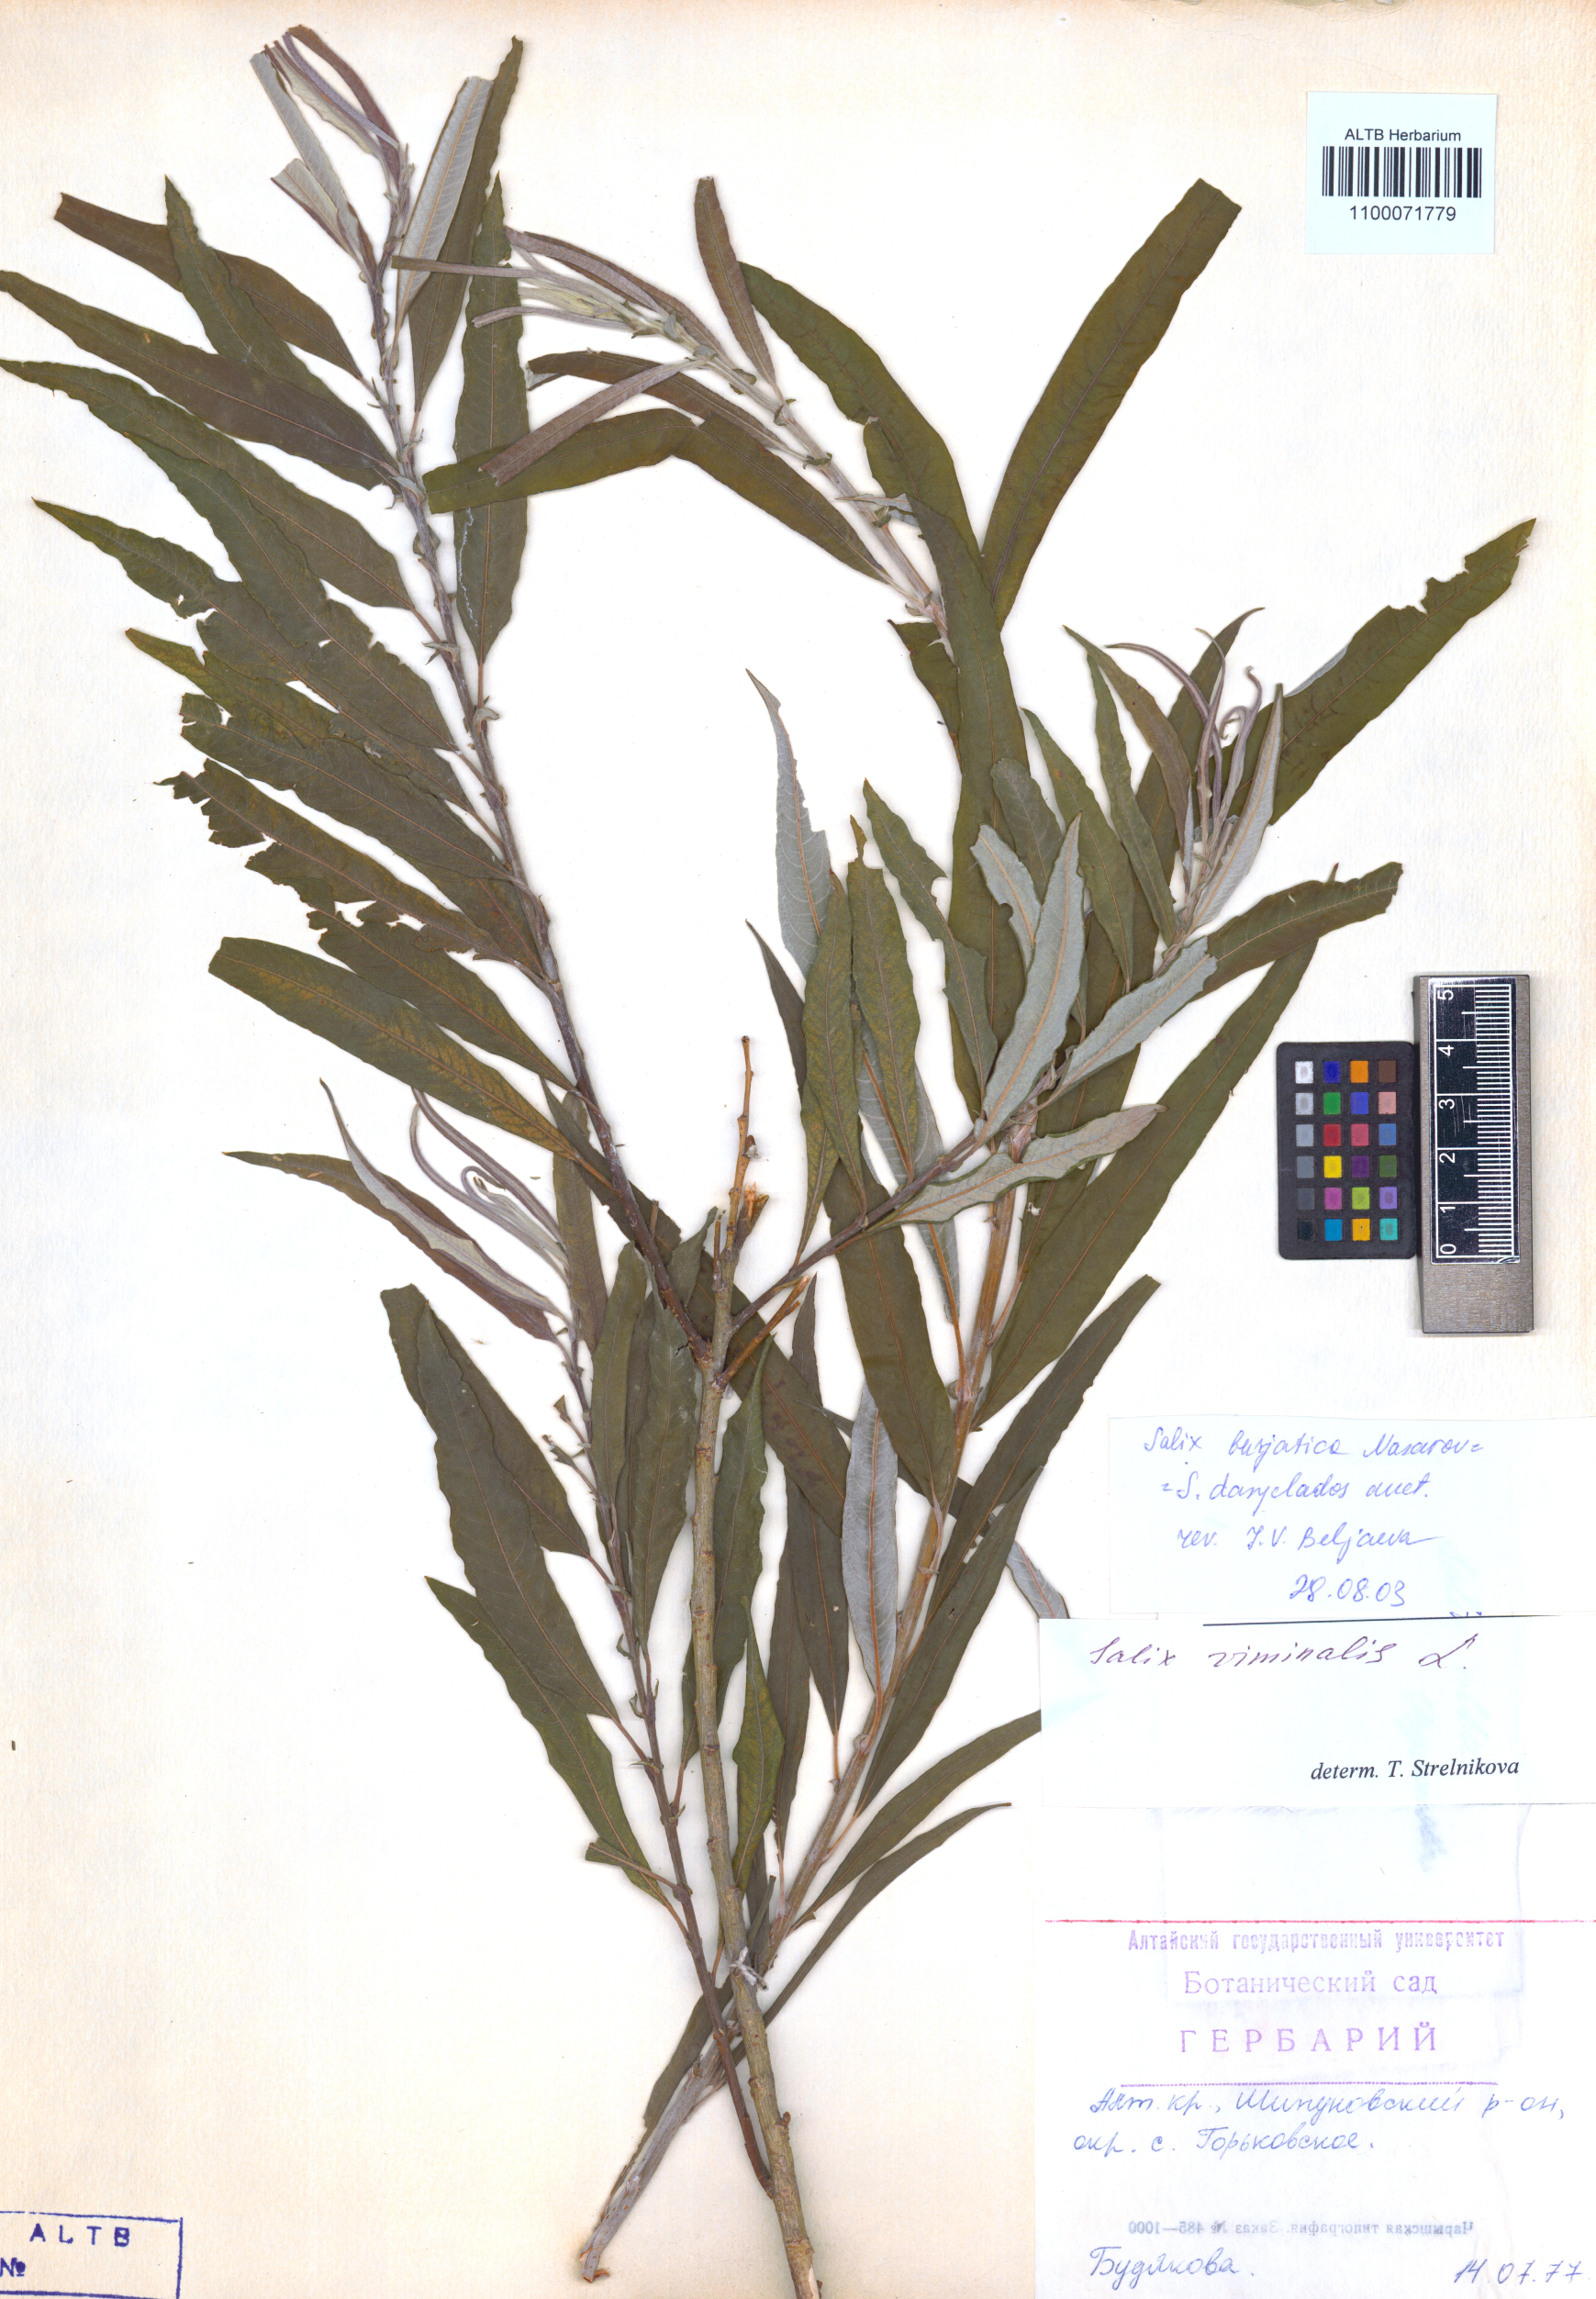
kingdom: Plantae
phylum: Tracheophyta
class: Magnoliopsida
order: Malpighiales
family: Salicaceae
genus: Salix
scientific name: Salix gmelinii
